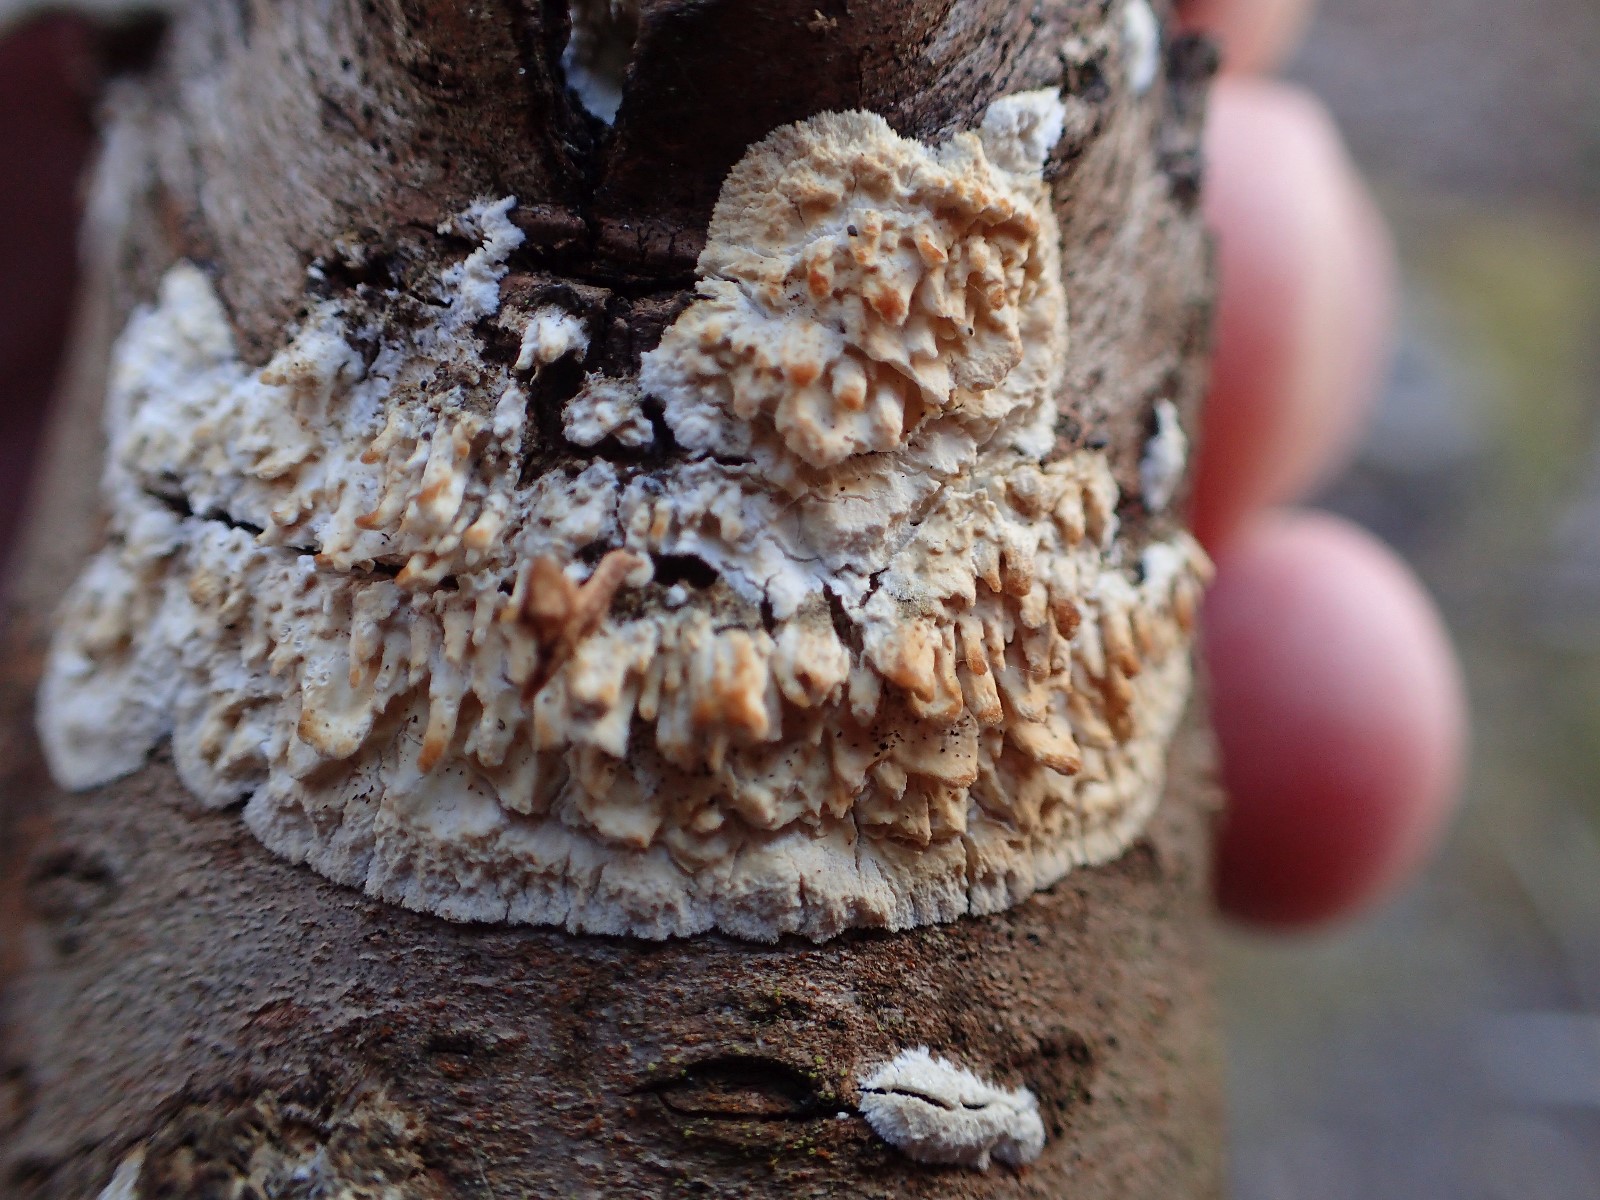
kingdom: Fungi
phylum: Basidiomycota
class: Agaricomycetes
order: Hymenochaetales
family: Schizoporaceae
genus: Xylodon
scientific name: Xylodon radula
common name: grovtandet kalkskind
